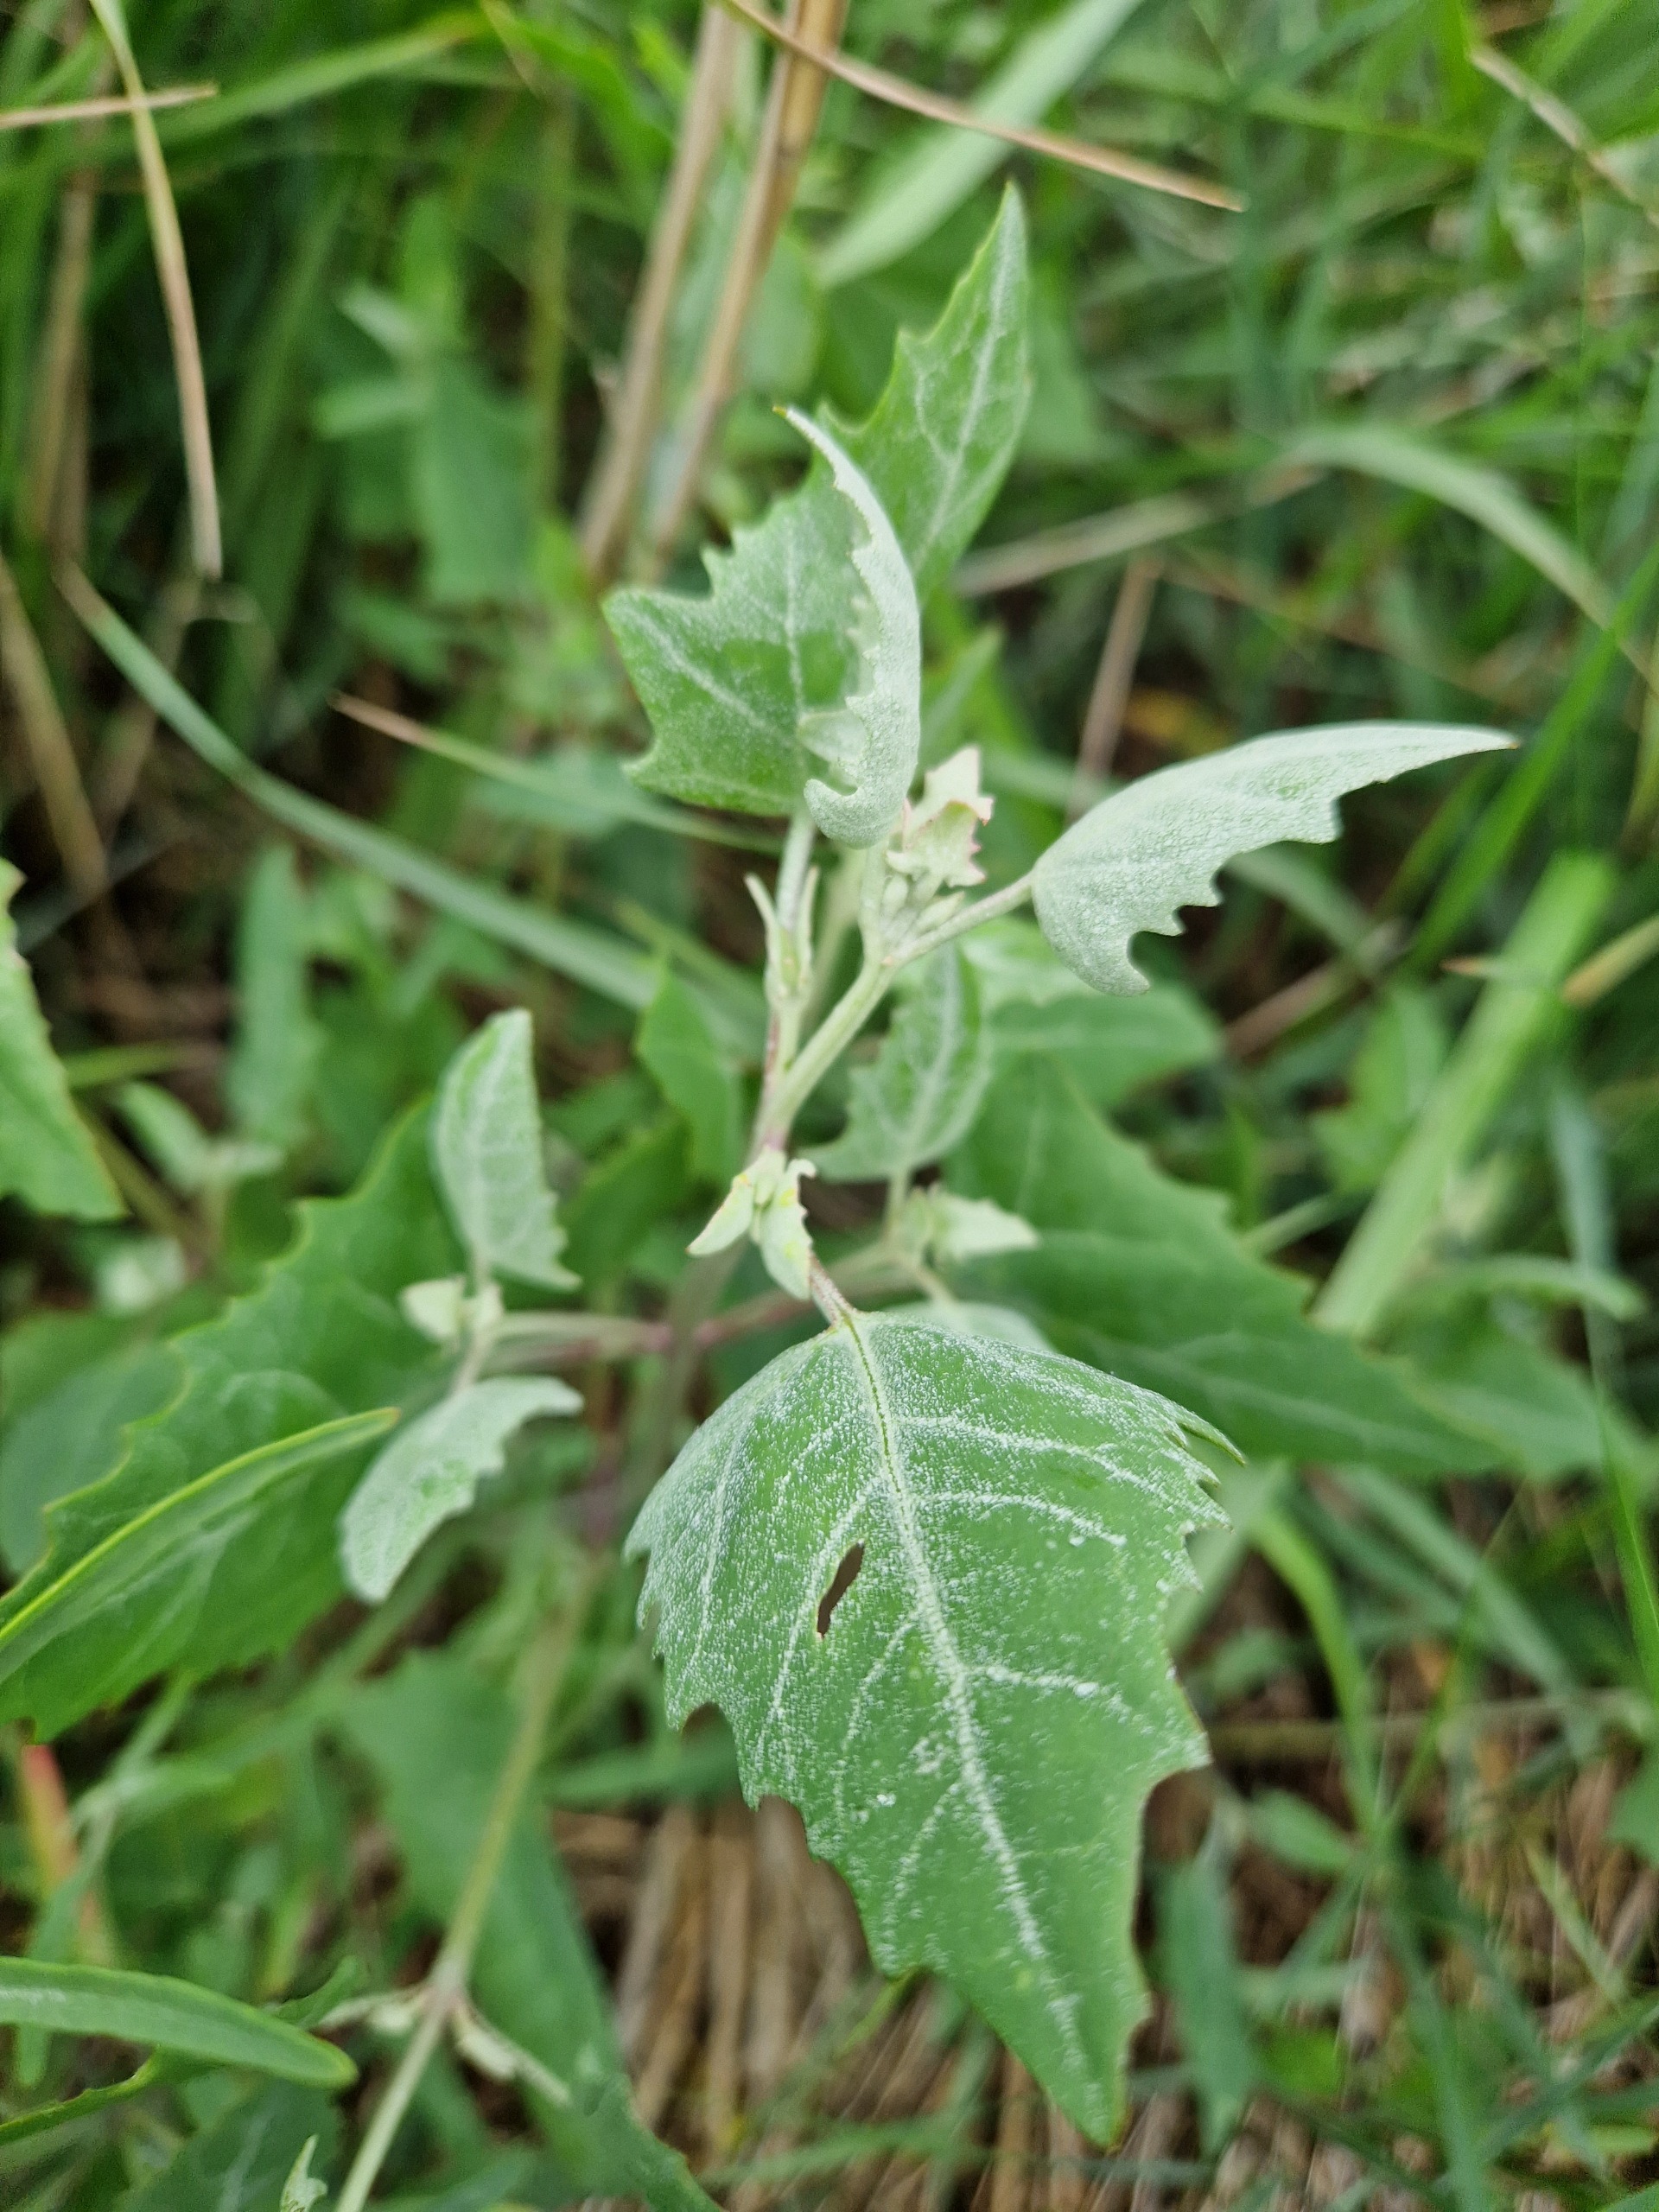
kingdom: Plantae
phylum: Tracheophyta
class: Magnoliopsida
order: Caryophyllales
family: Amaranthaceae
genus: Atriplex
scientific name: Atriplex prostrata
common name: Spyd-mælde
